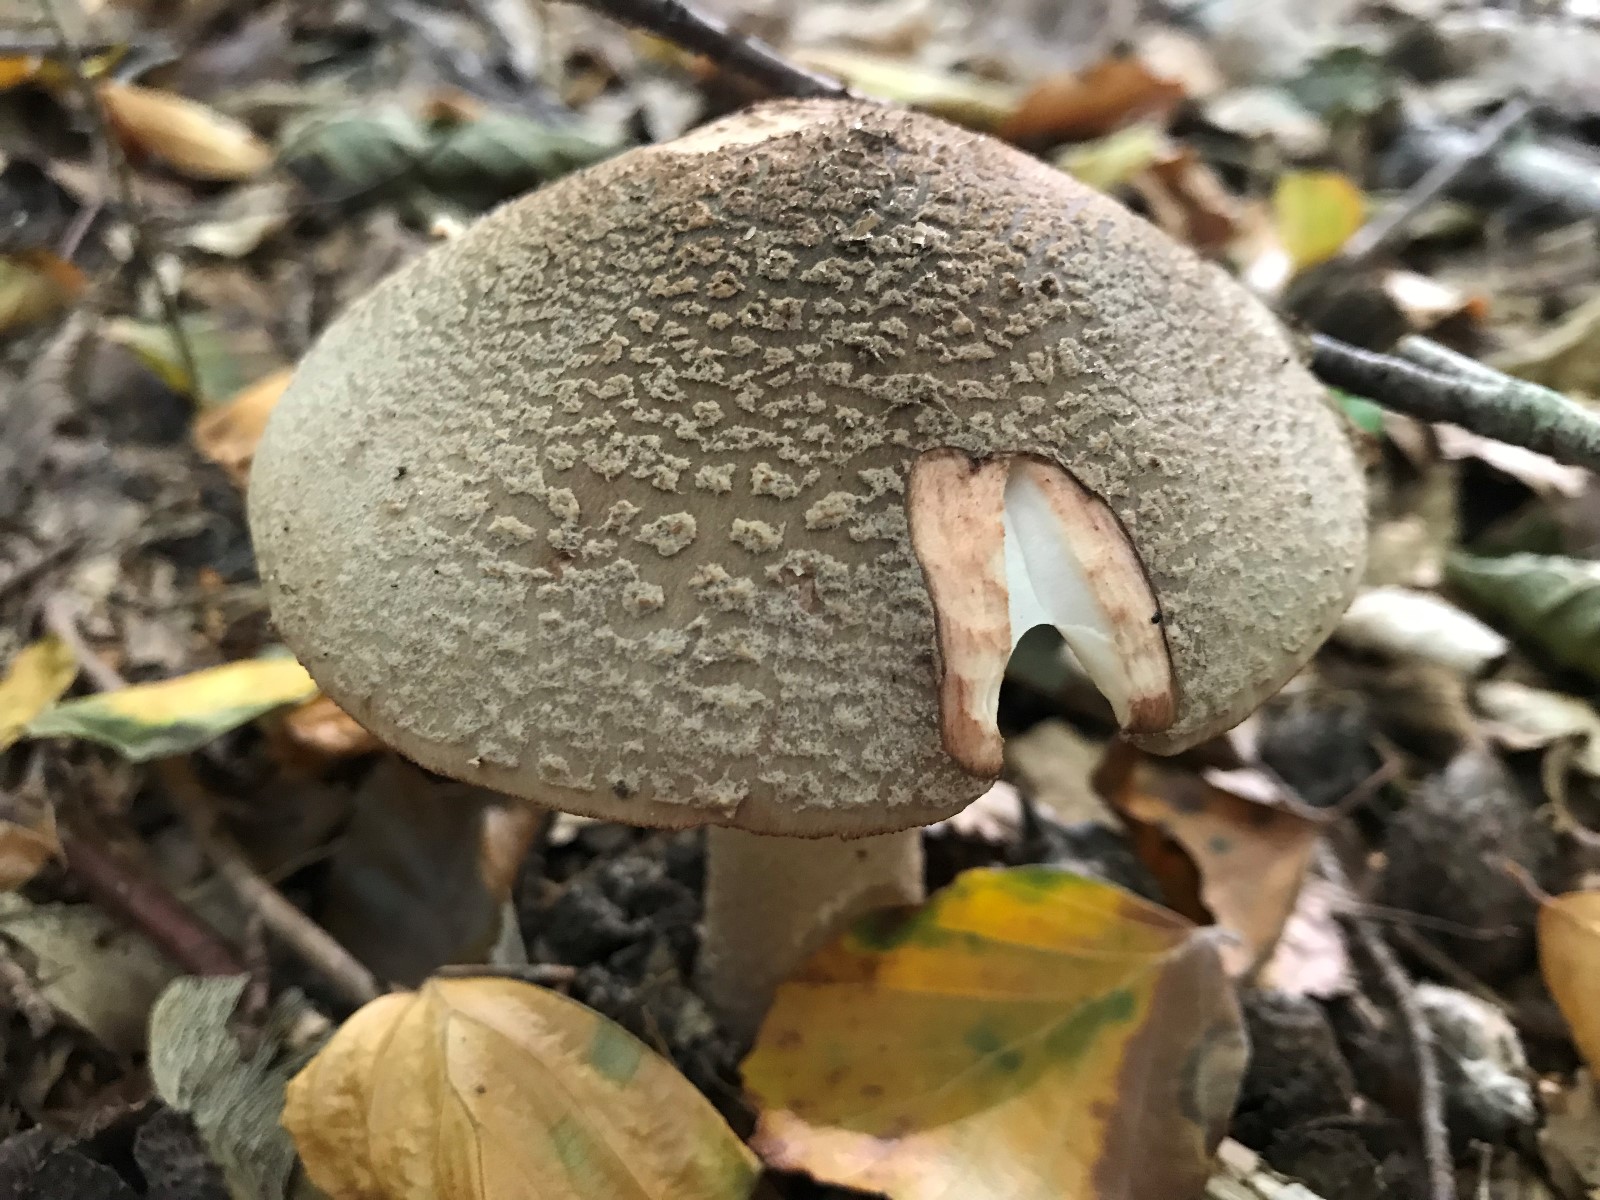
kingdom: Fungi
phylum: Basidiomycota
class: Agaricomycetes
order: Agaricales
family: Amanitaceae
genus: Amanita
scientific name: Amanita rubescens
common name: rødmende fluesvamp
